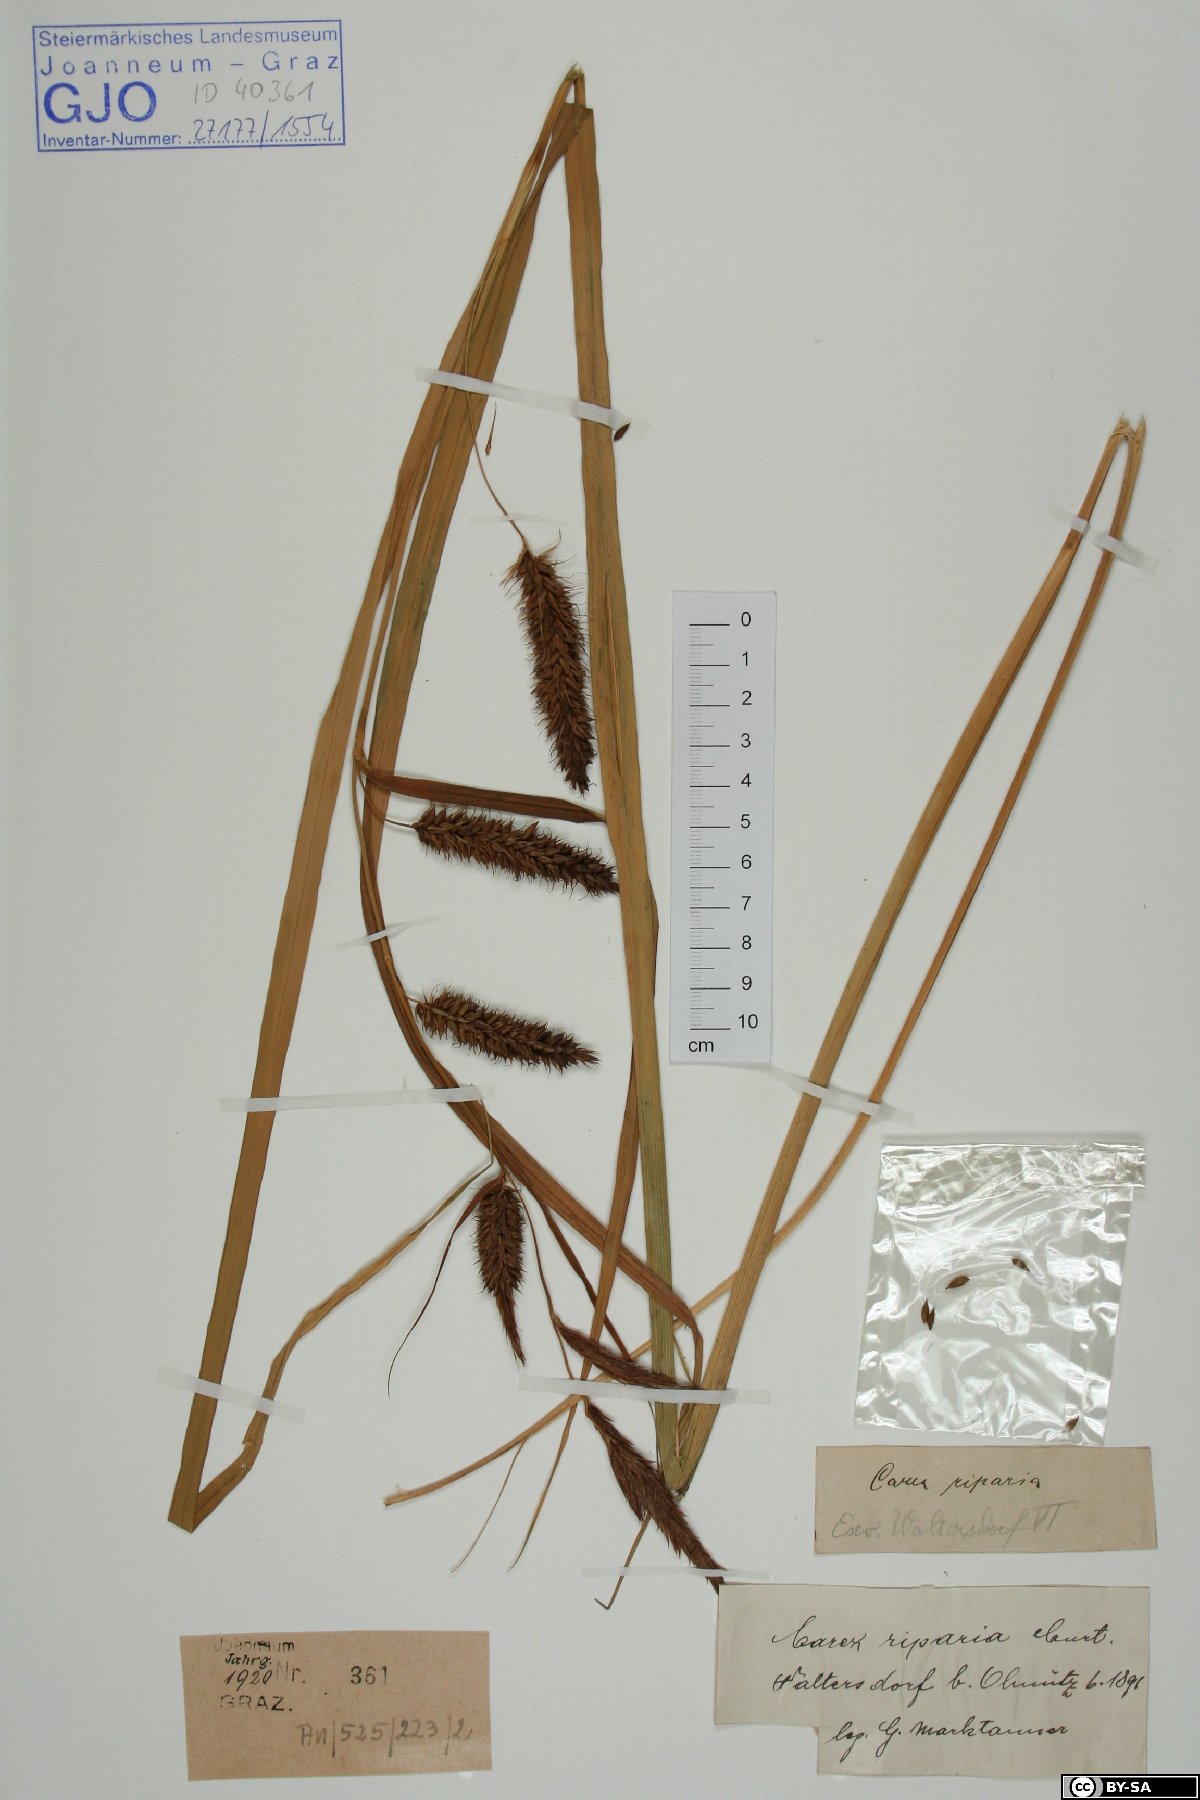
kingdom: Plantae
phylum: Tracheophyta
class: Liliopsida
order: Poales
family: Cyperaceae
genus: Carex
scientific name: Carex riparia
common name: Greater pond-sedge
